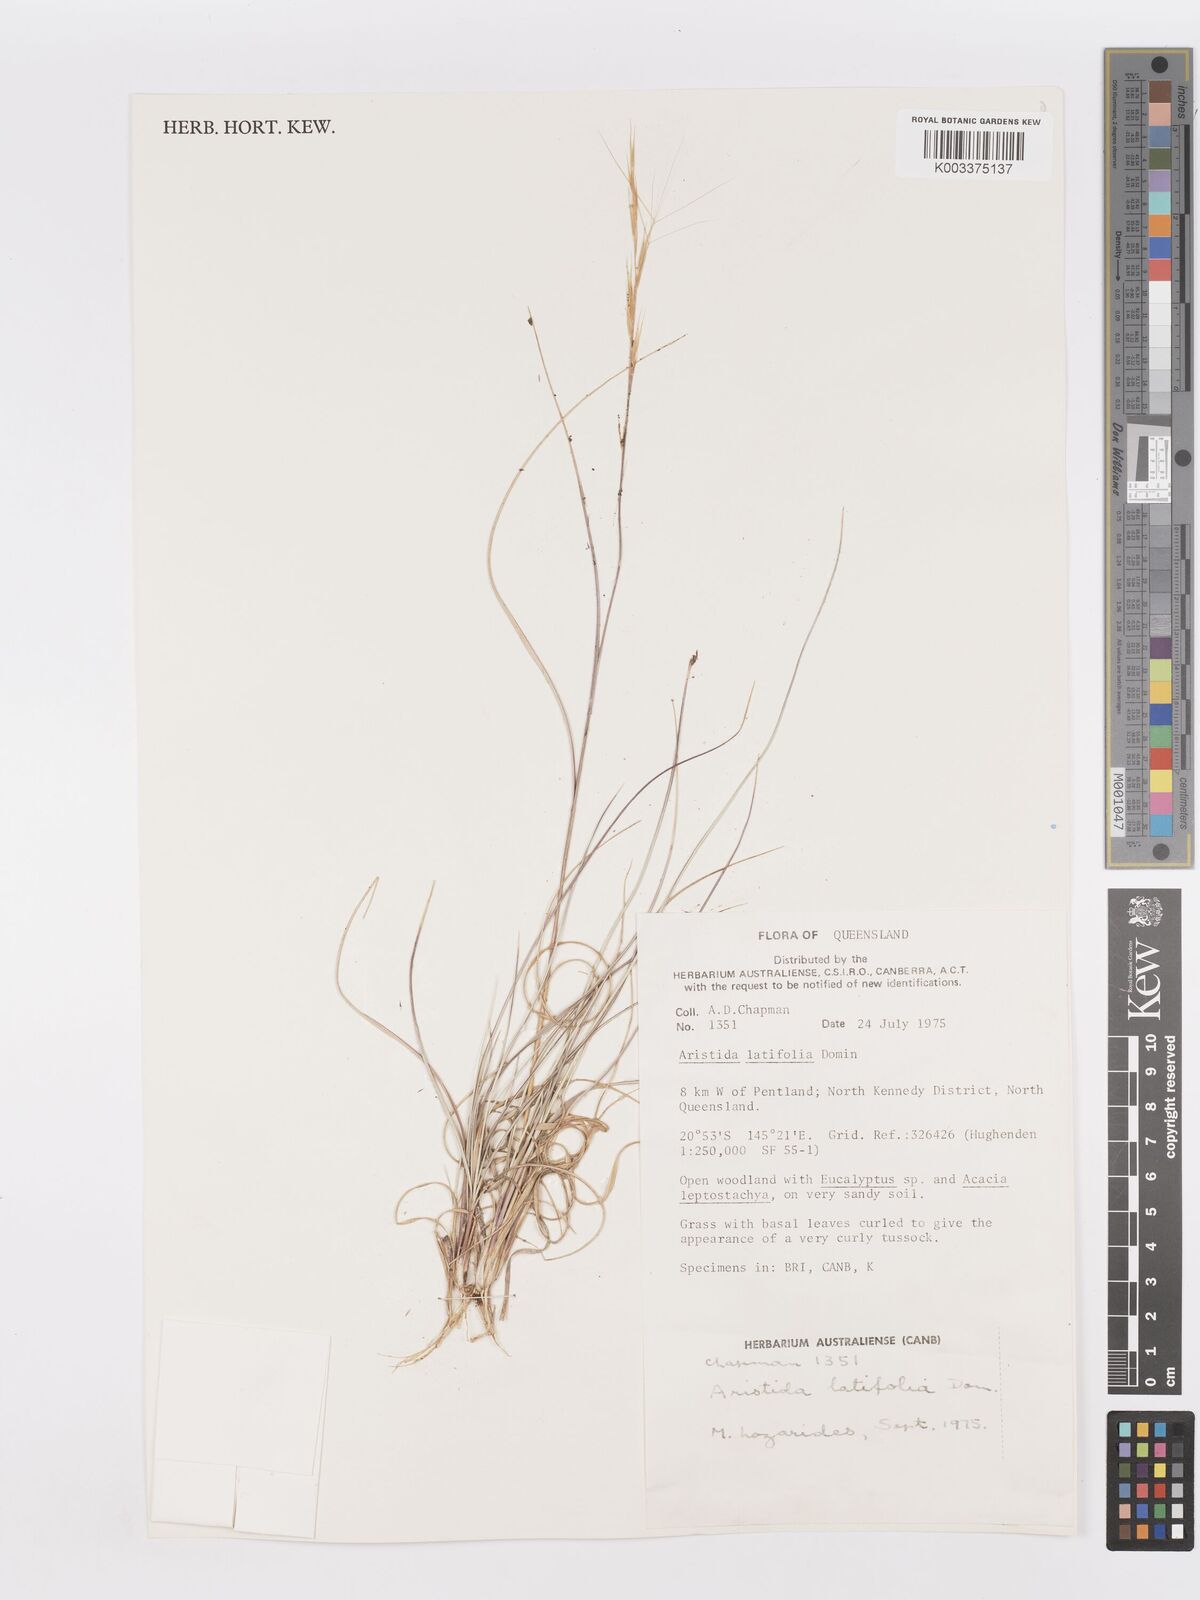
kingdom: Plantae
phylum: Tracheophyta
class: Liliopsida
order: Poales
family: Poaceae
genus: Aristida
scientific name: Aristida latifolia
